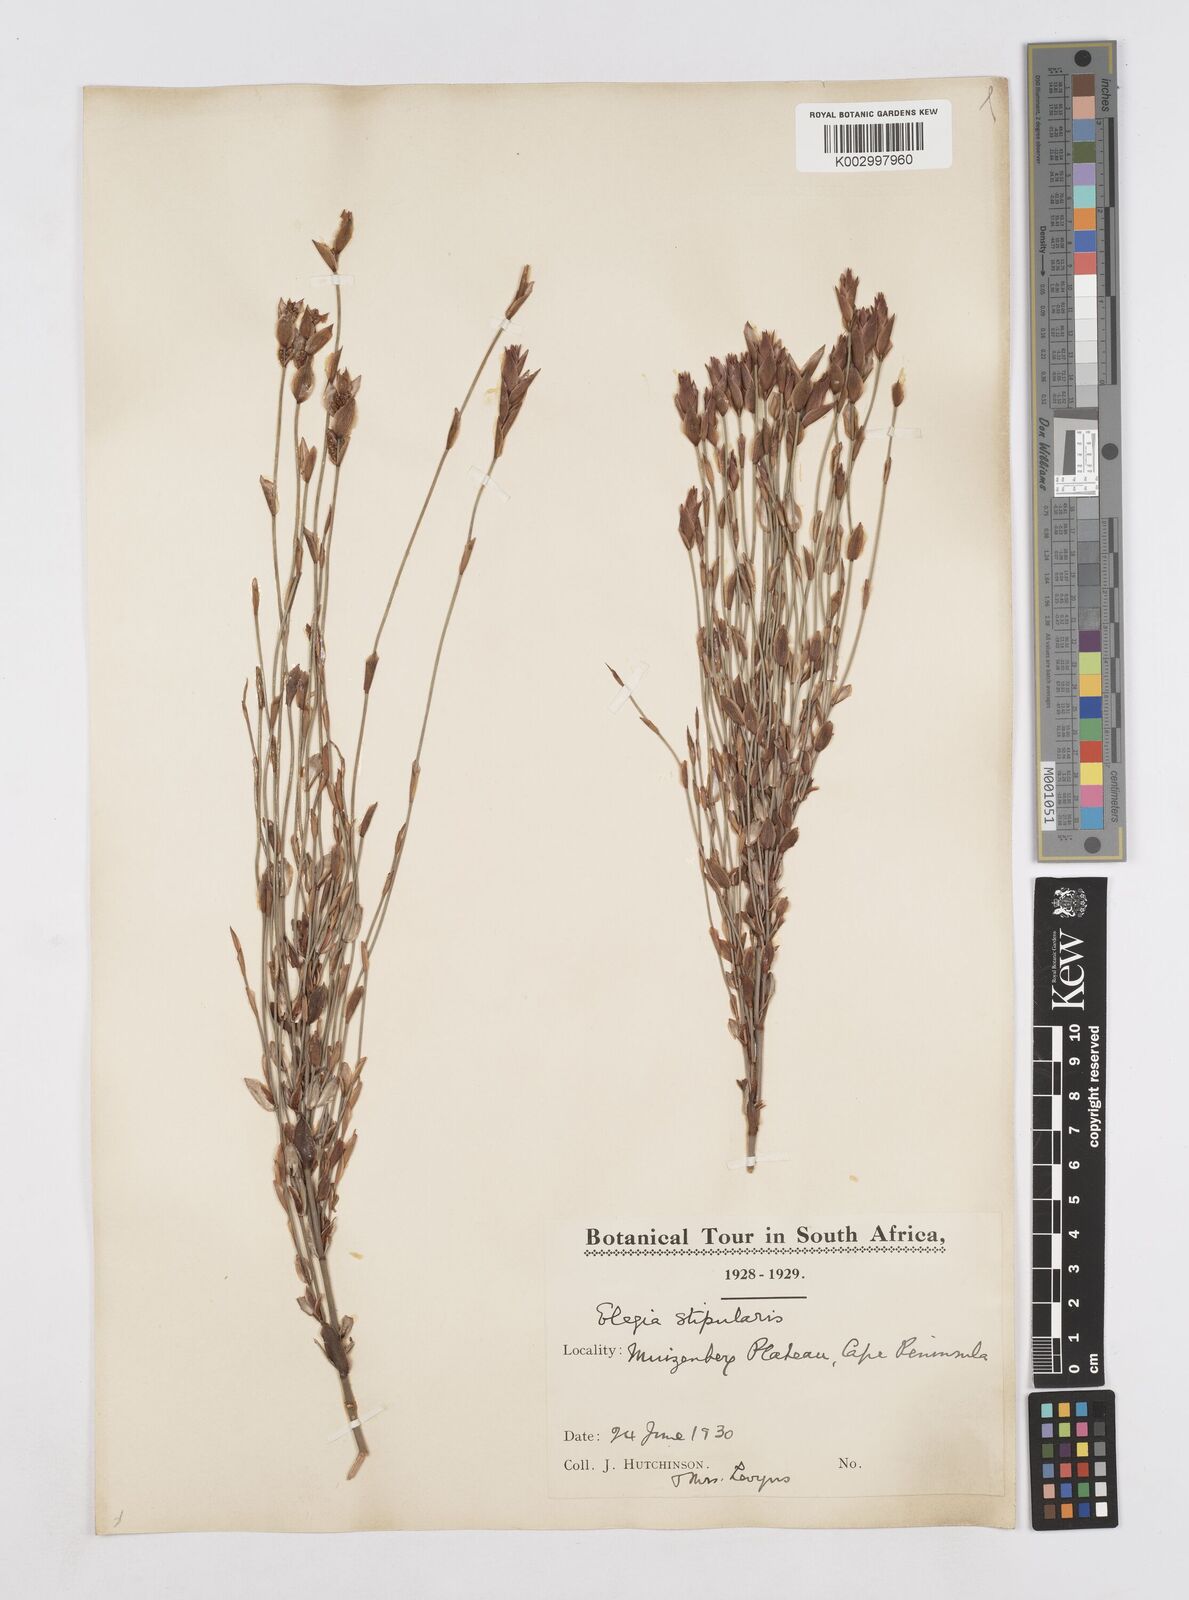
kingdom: Plantae
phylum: Tracheophyta
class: Liliopsida
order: Poales
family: Restionaceae
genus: Elegia
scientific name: Elegia stipularis
